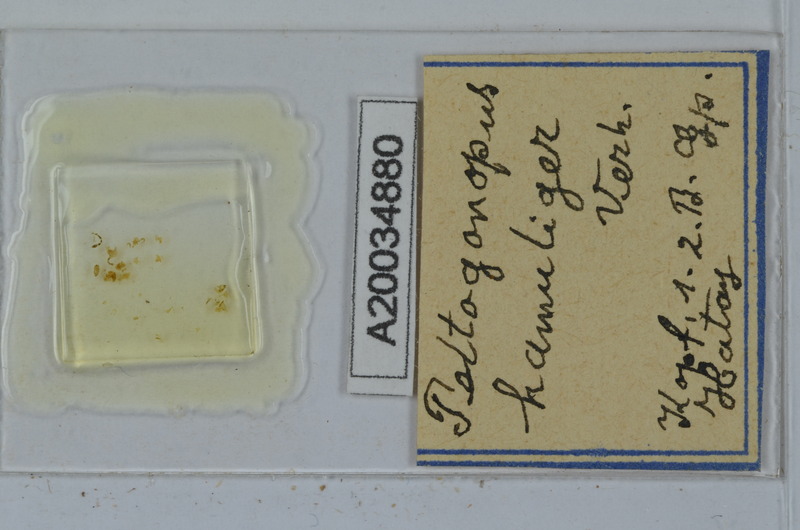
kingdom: Animalia
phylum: Arthropoda
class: Diplopoda
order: Polydesmida
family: Polydesmidae
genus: Peltogonopus
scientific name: Peltogonopus
